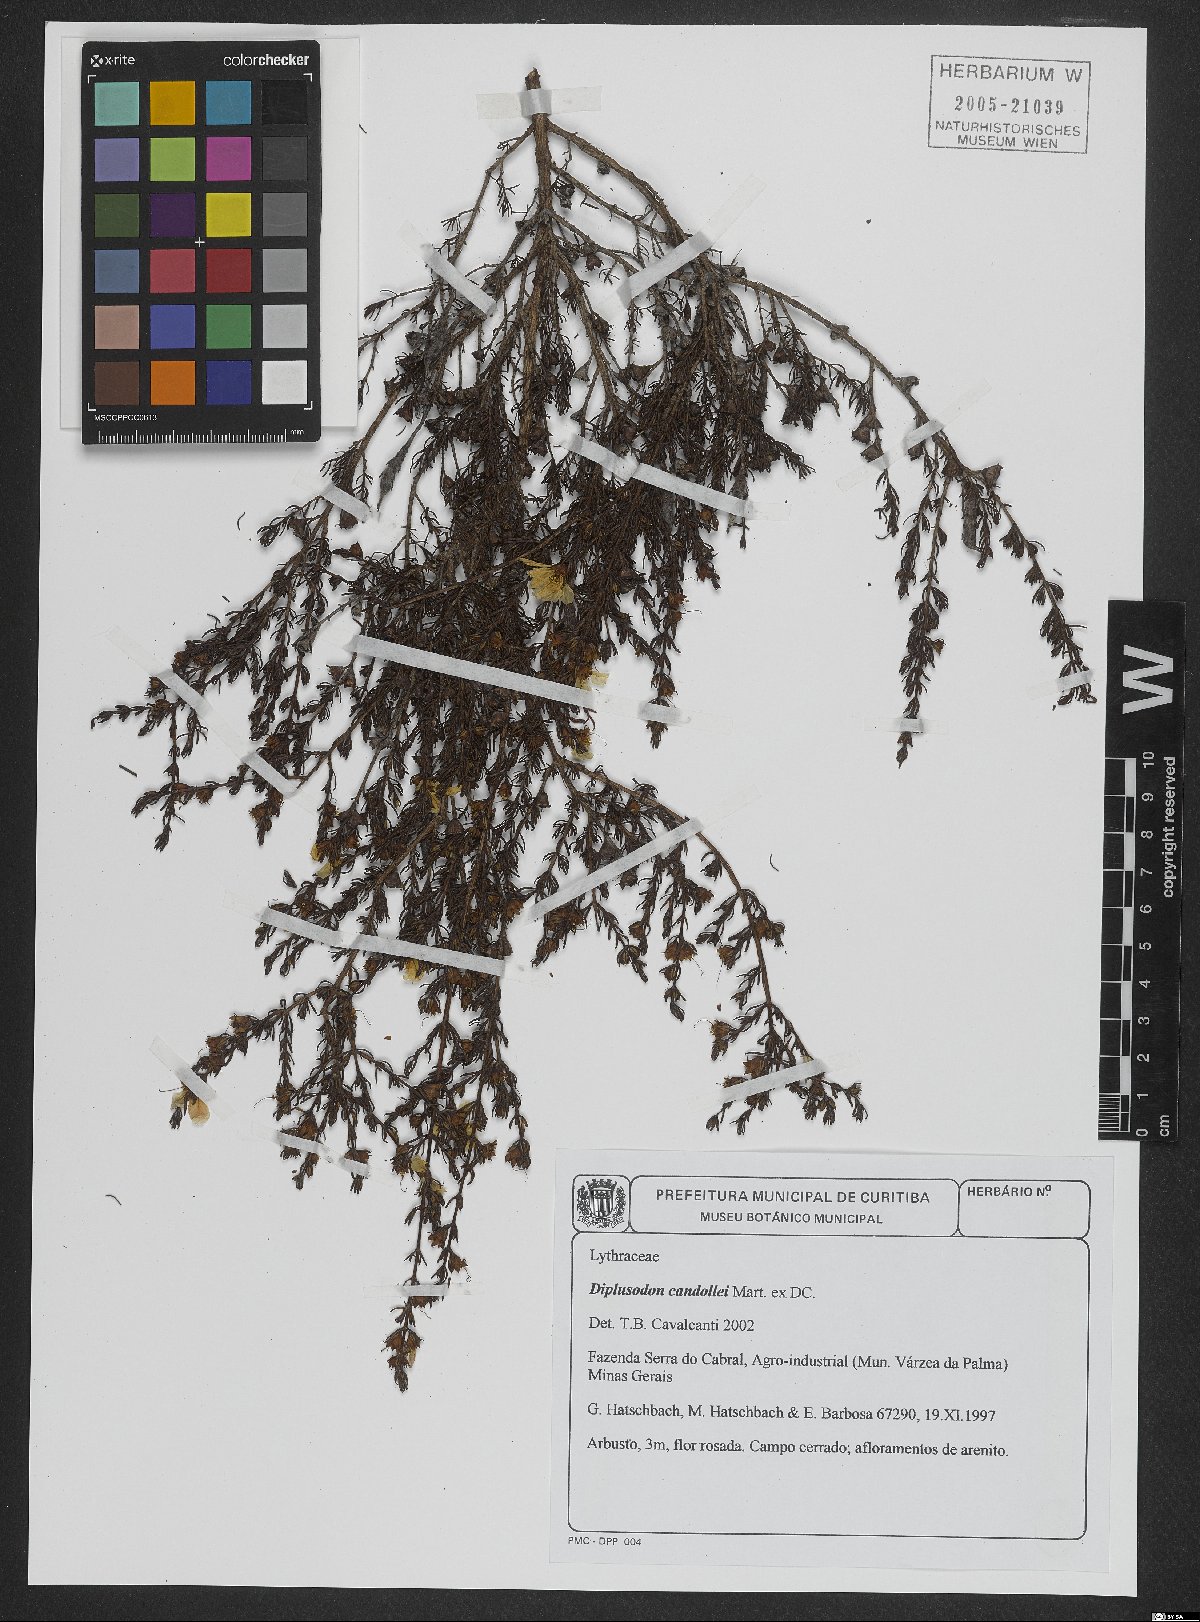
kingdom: Plantae
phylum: Tracheophyta
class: Magnoliopsida
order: Myrtales
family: Lythraceae
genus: Diplusodon
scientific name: Diplusodon candollei
